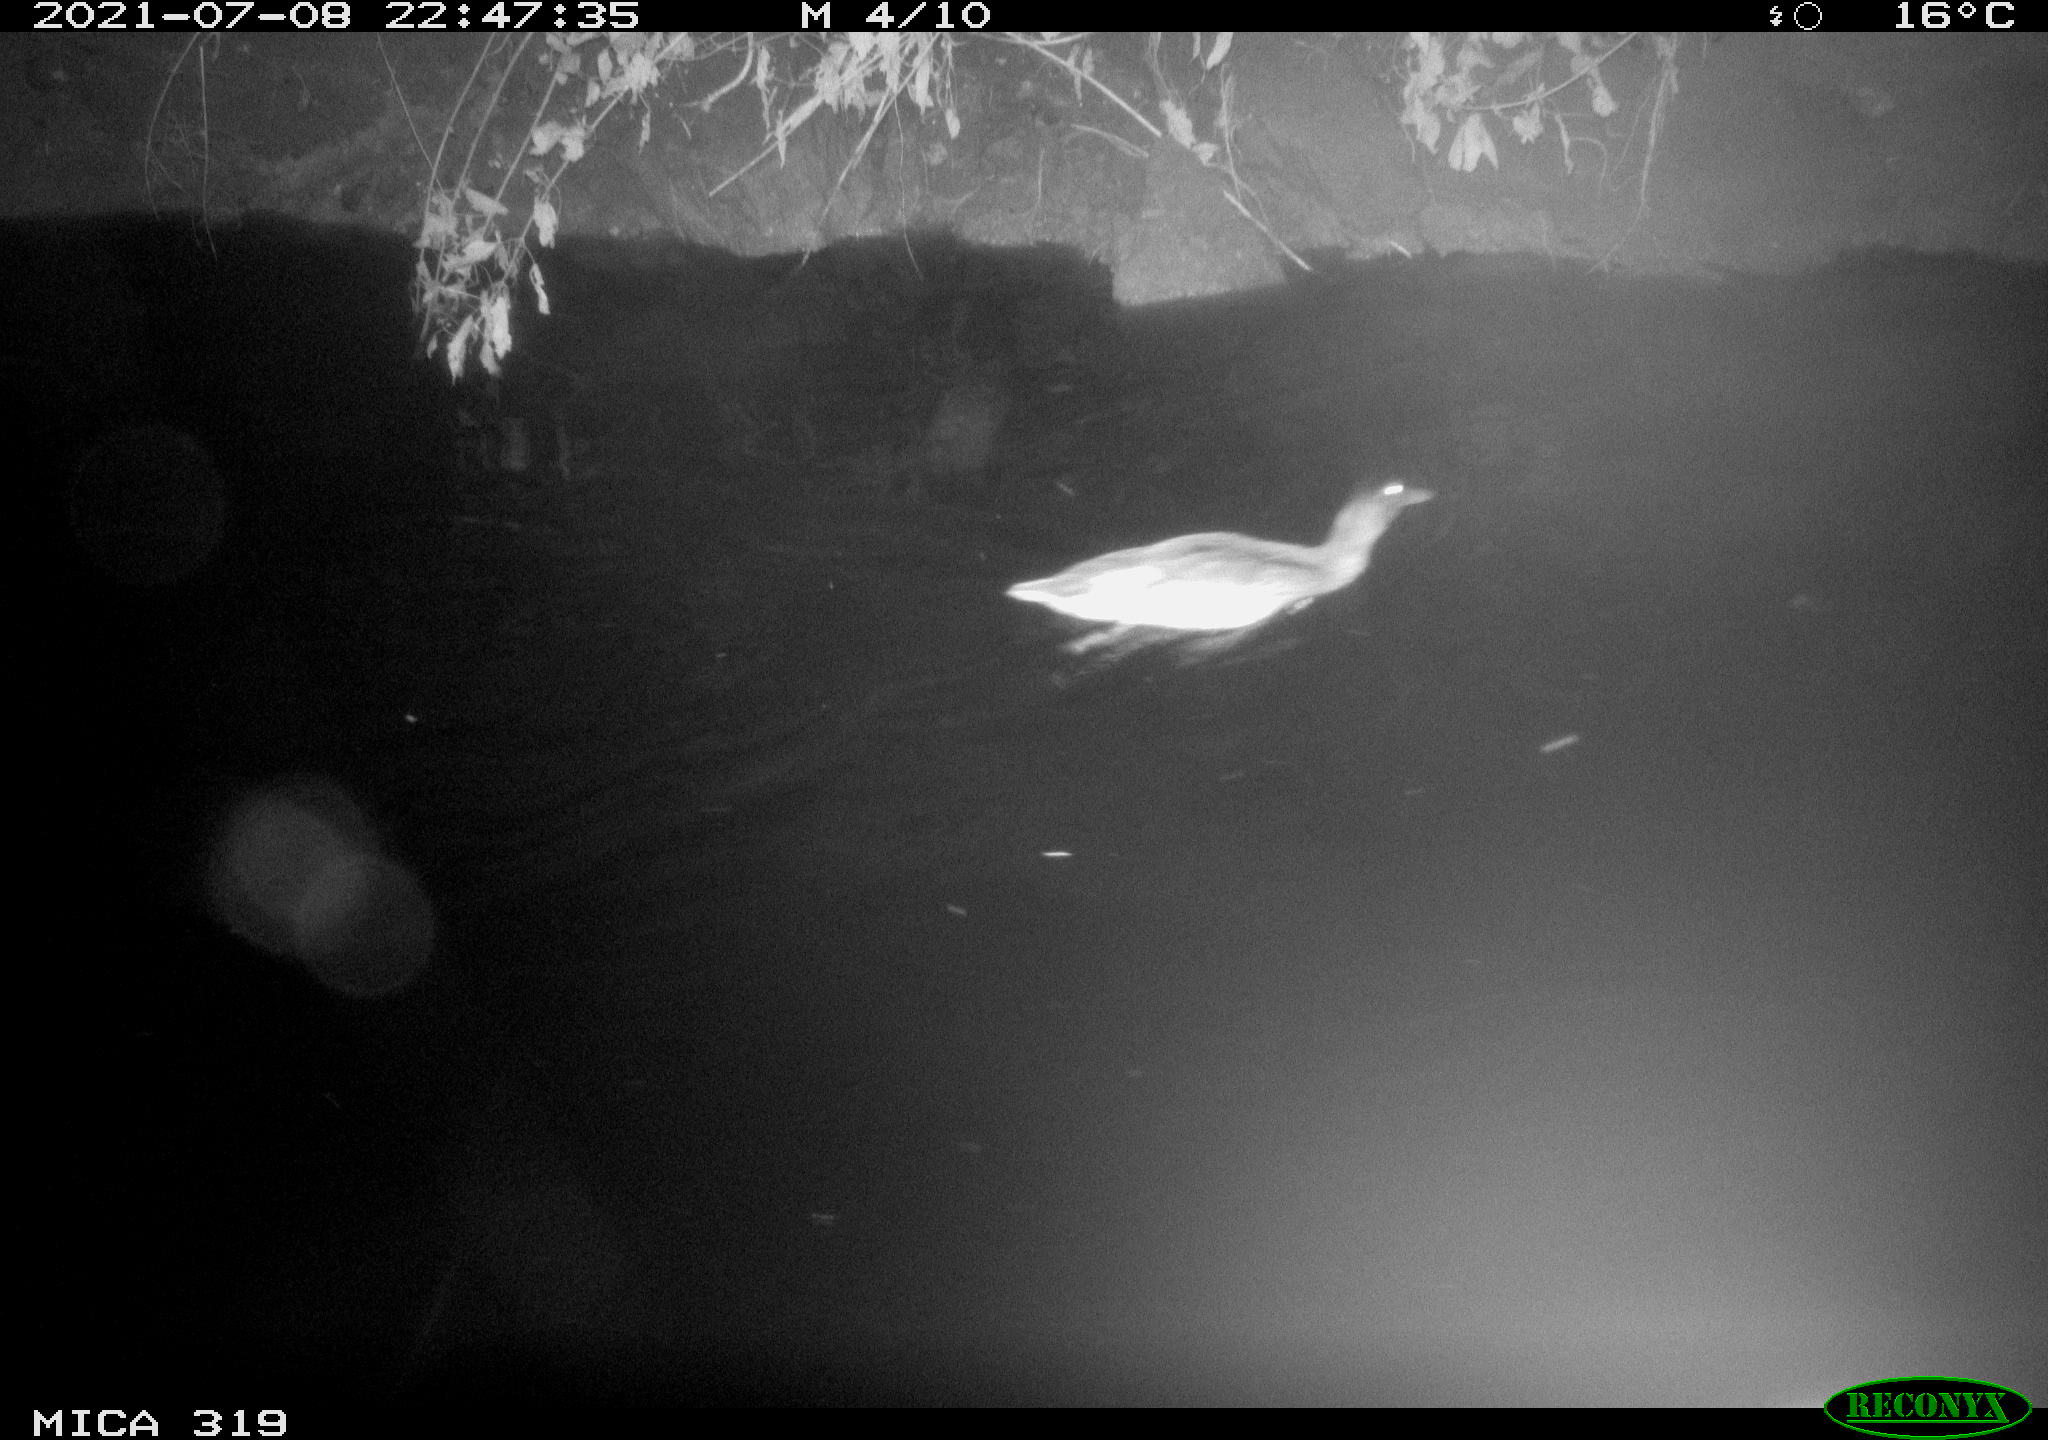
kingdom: Animalia
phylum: Chordata
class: Aves
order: Anseriformes
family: Anatidae
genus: Anas
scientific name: Anas platyrhynchos
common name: Mallard
